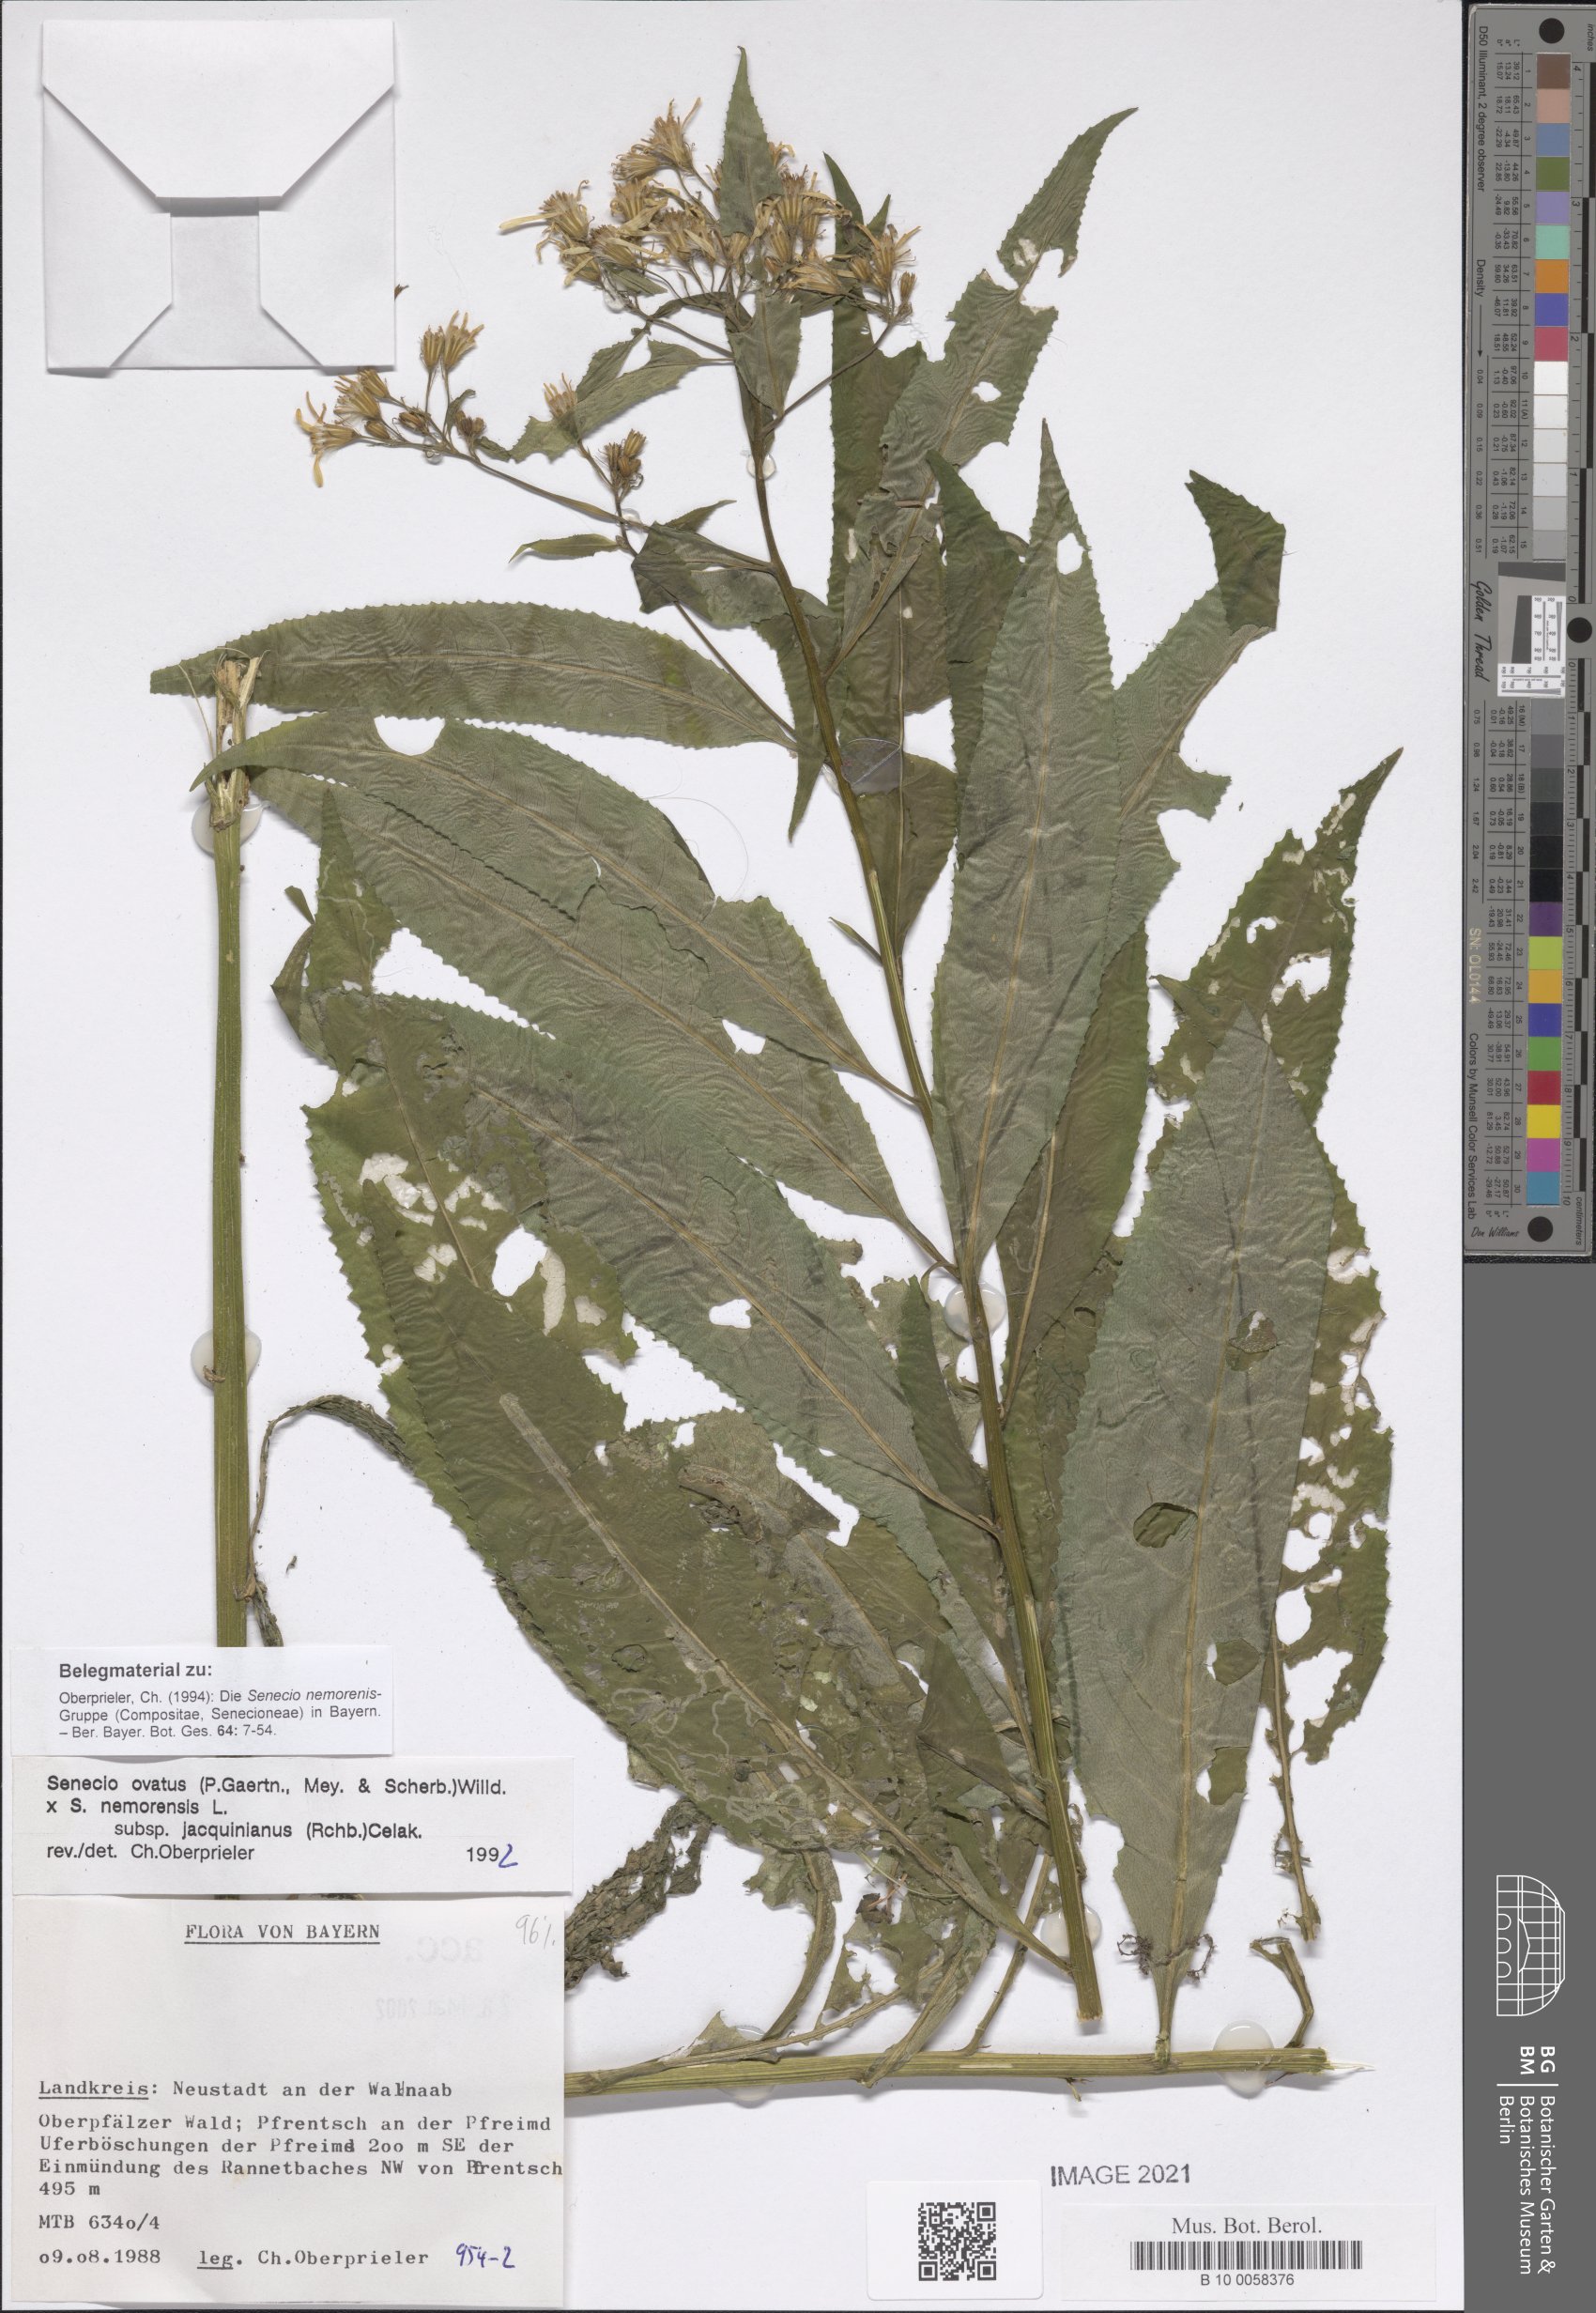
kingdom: Plantae
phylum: Tracheophyta
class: Magnoliopsida
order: Asterales
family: Asteraceae
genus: Senecio
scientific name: Senecio ovatus
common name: Wood ragwort
